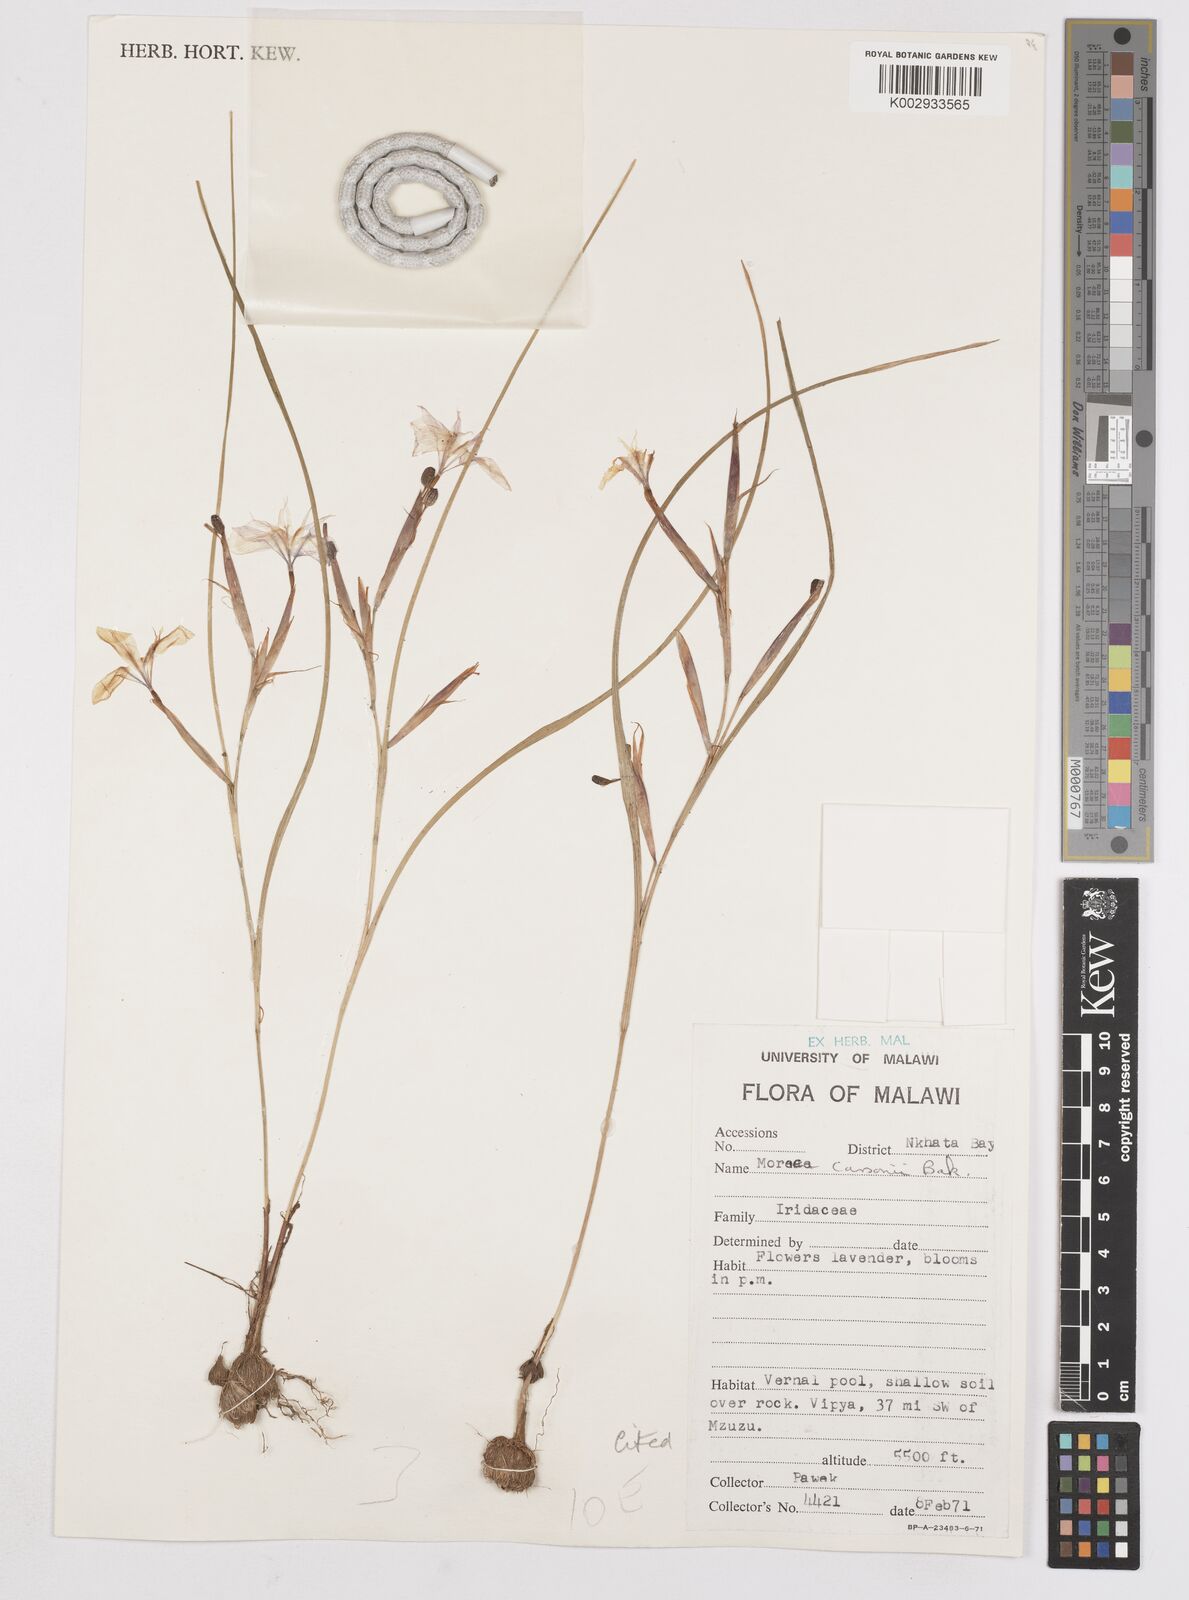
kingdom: Plantae
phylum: Tracheophyta
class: Liliopsida
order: Asparagales
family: Iridaceae
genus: Moraea
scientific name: Moraea carsonii
